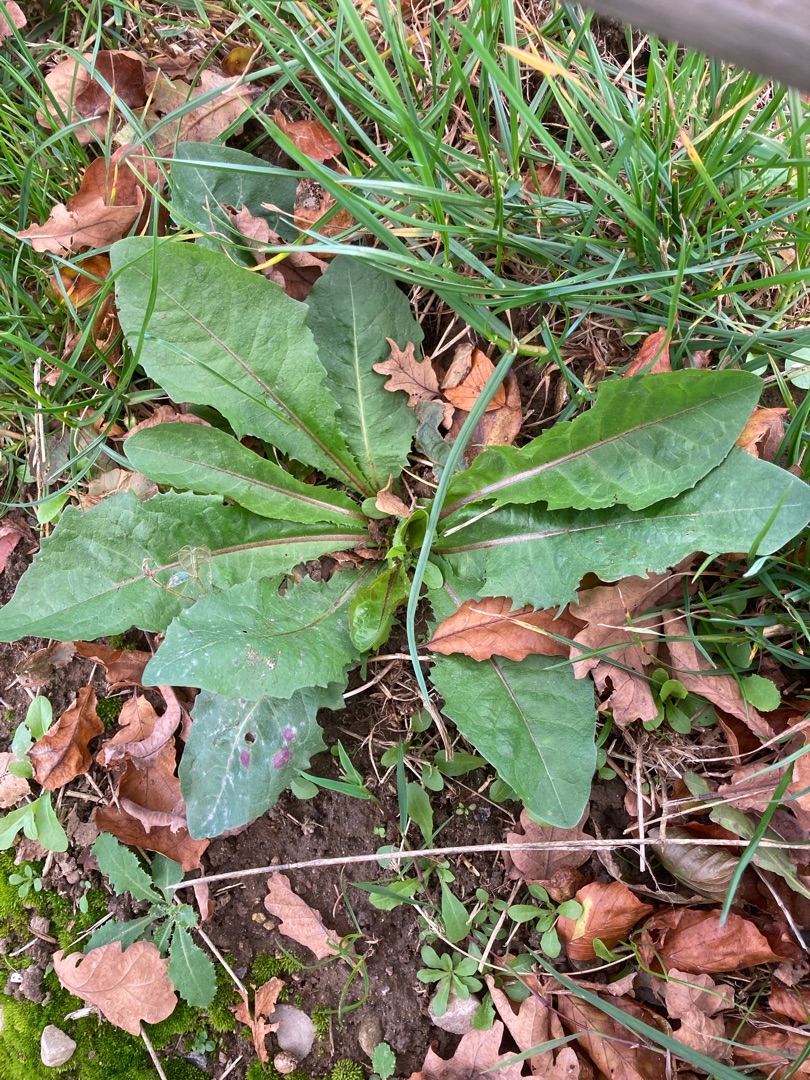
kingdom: Plantae
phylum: Tracheophyta
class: Magnoliopsida
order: Asterales
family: Asteraceae
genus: Taraxacum
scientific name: Taraxacum
